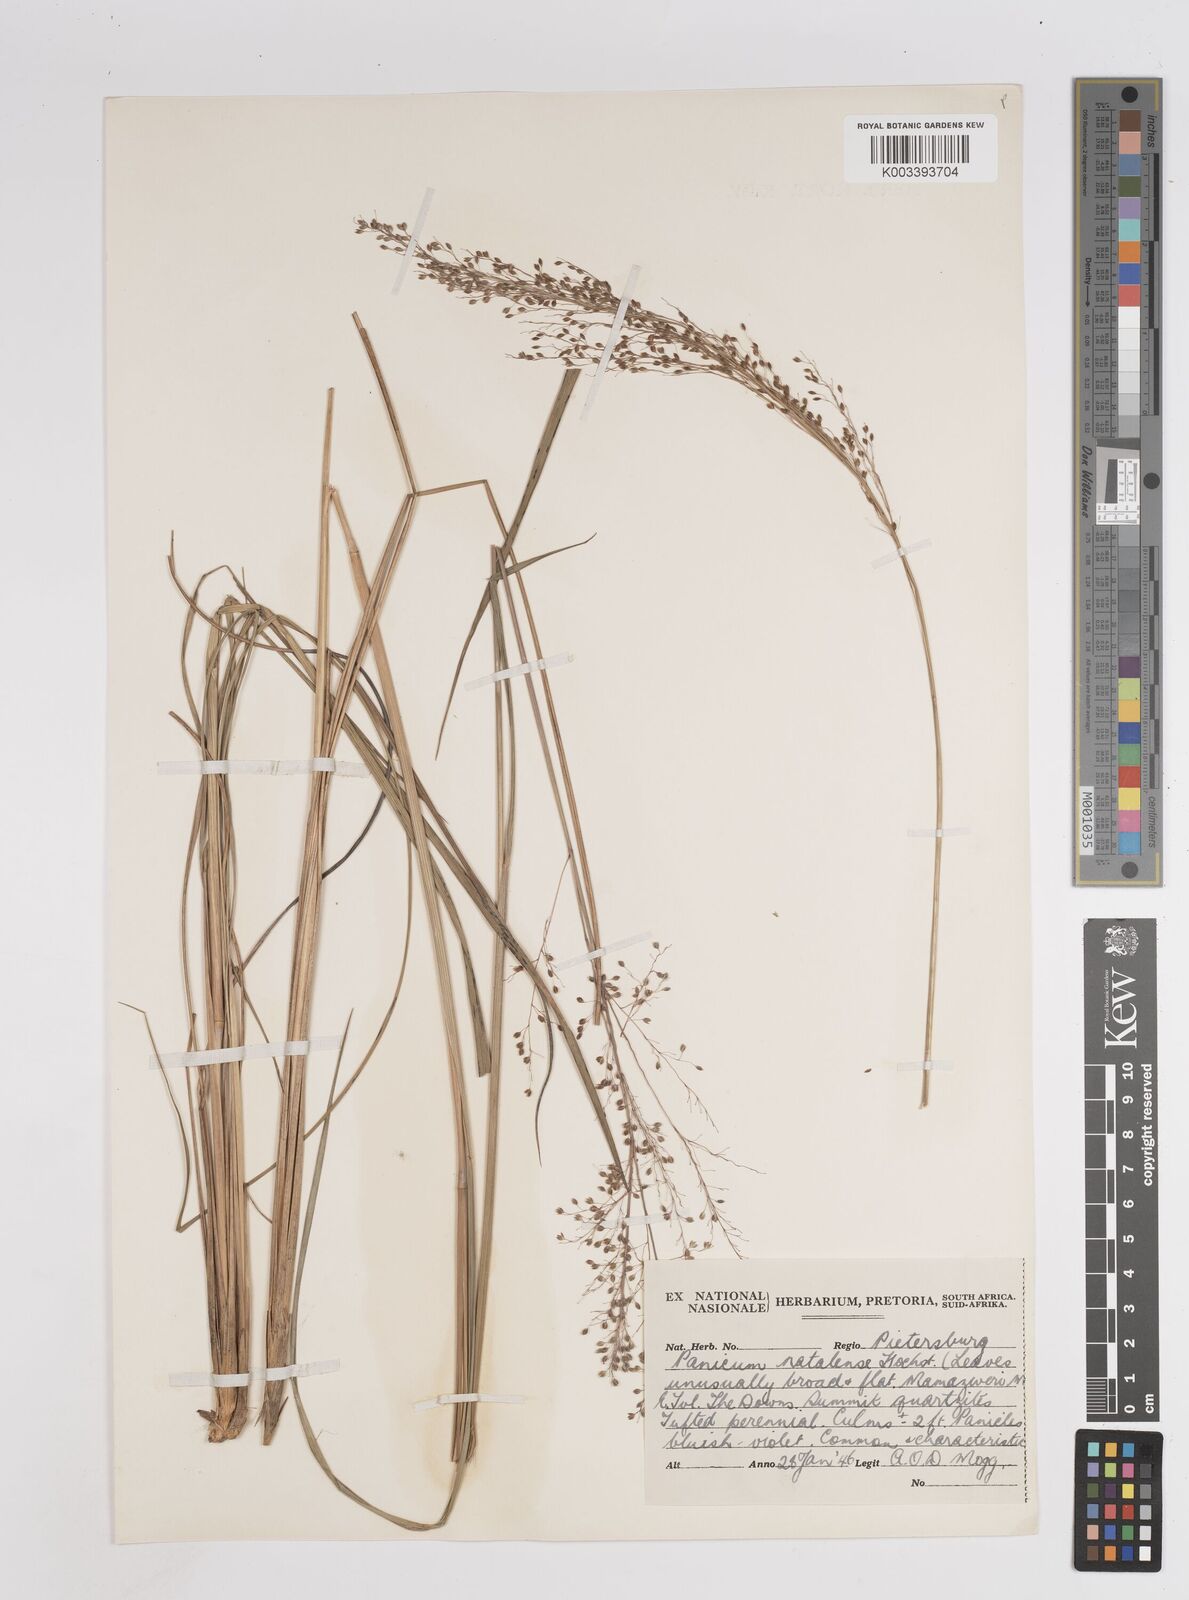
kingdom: Plantae
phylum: Tracheophyta
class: Liliopsida
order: Poales
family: Poaceae
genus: Trichanthecium
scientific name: Trichanthecium natalense
